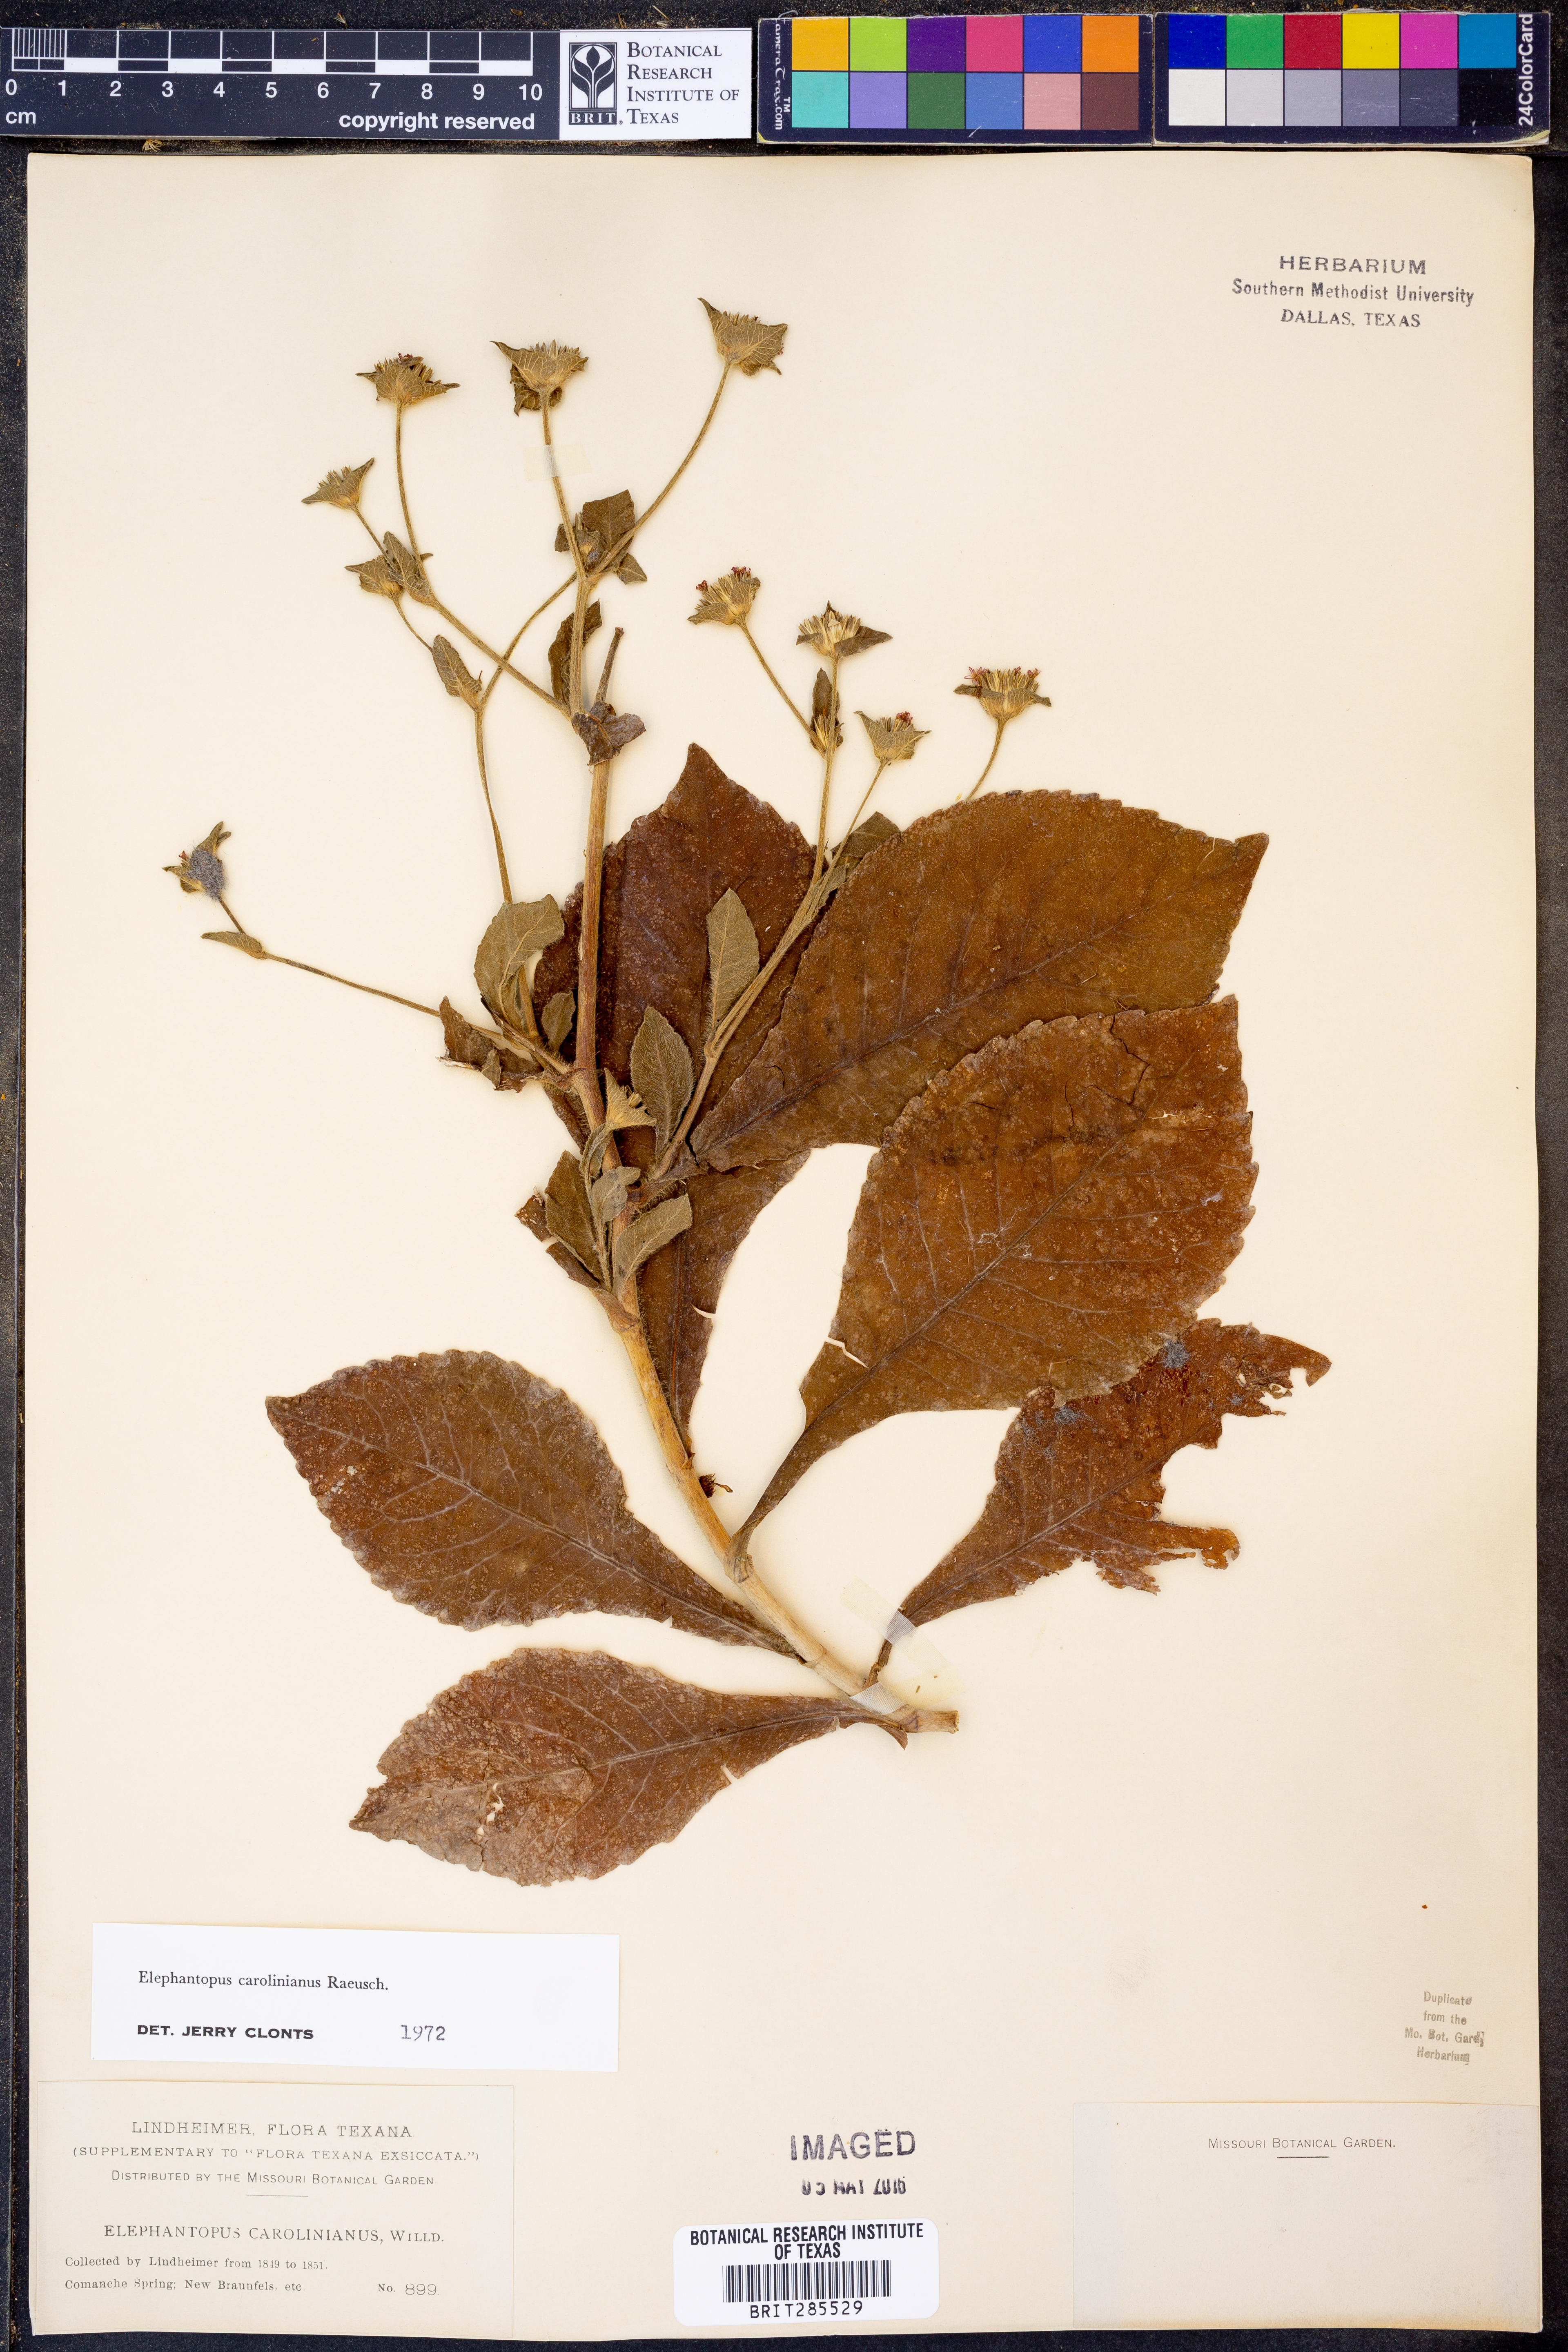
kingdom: Plantae
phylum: Tracheophyta
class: Magnoliopsida
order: Asterales
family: Asteraceae
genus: Elephantopus
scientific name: Elephantopus carolinianus
